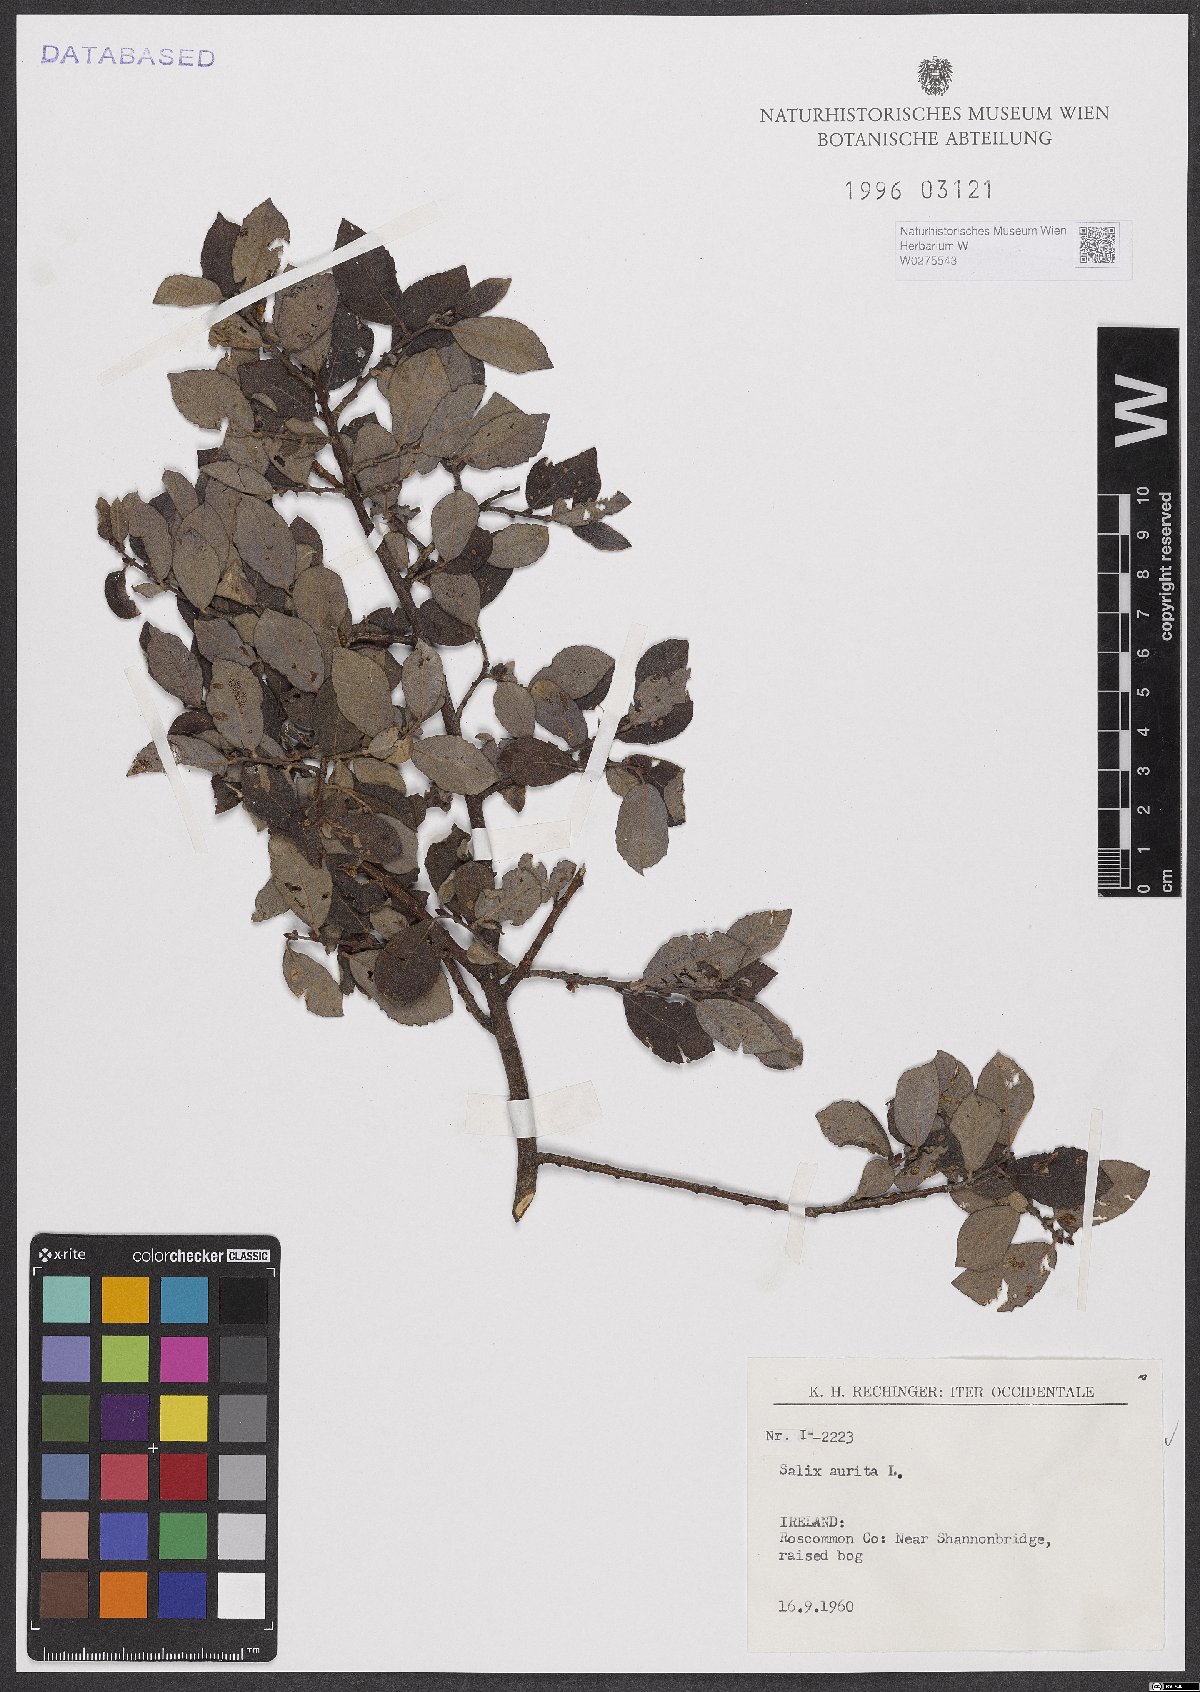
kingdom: Plantae
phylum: Tracheophyta
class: Magnoliopsida
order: Malpighiales
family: Salicaceae
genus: Salix
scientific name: Salix aurita
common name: Eared willow
